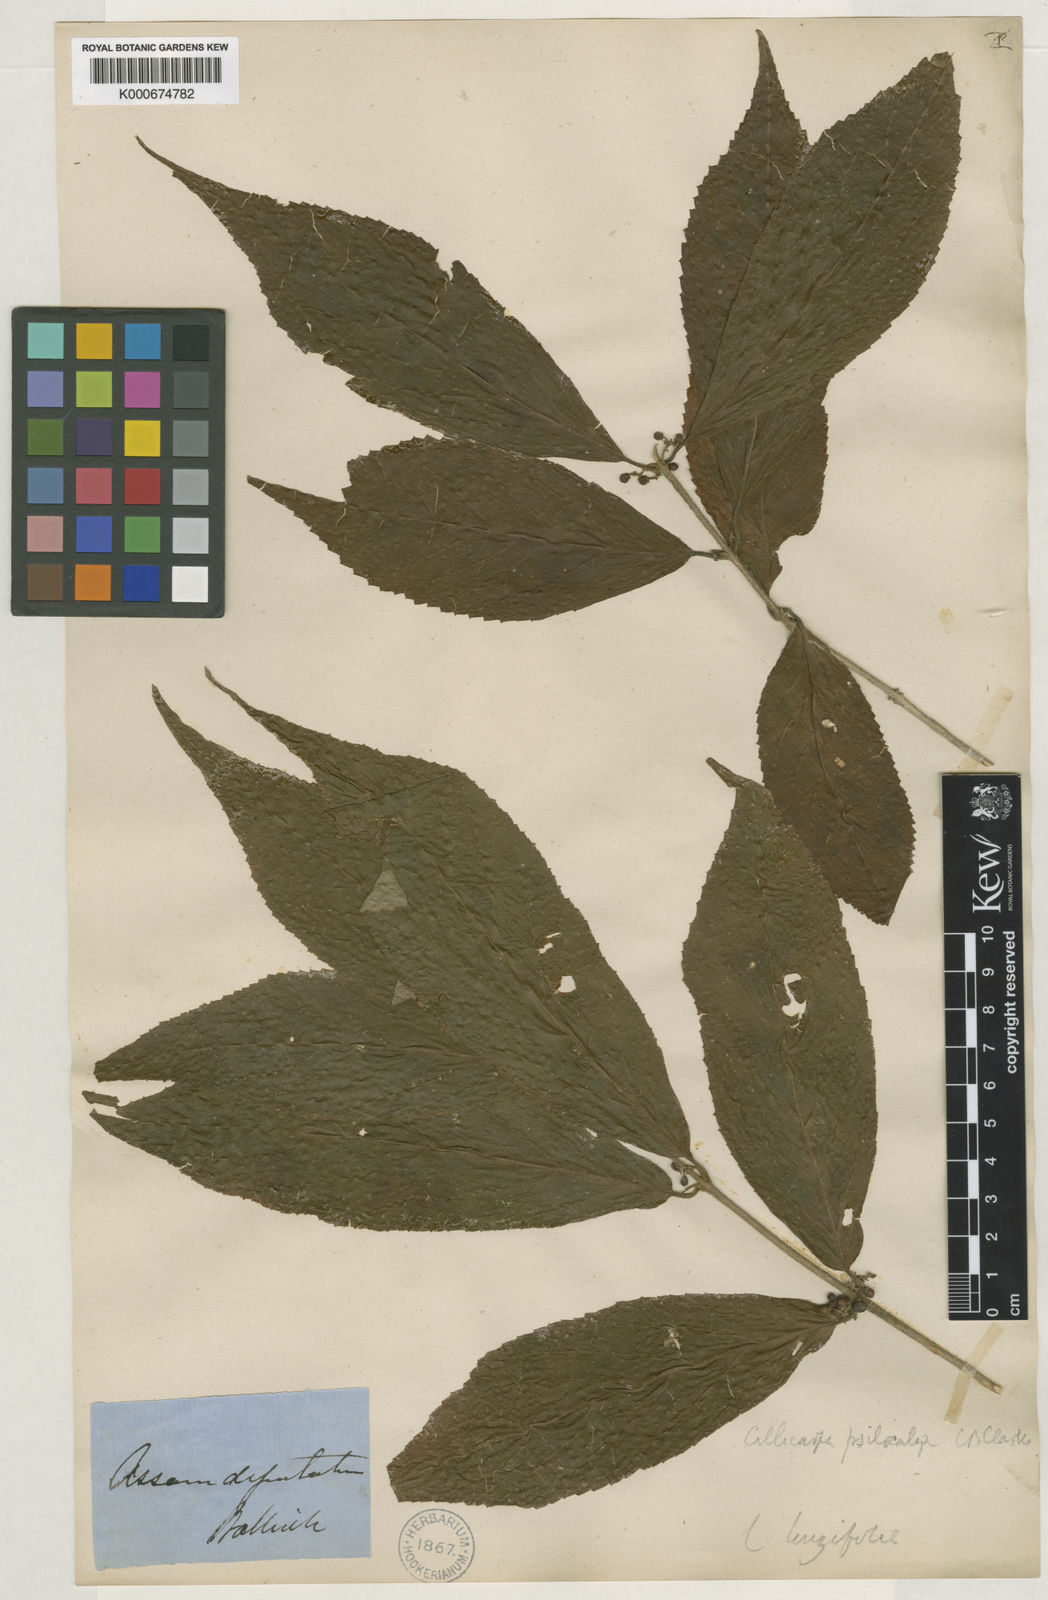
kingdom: Plantae
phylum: Tracheophyta
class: Magnoliopsida
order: Lamiales
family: Lamiaceae
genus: Callicarpa
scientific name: Callicarpa psilocalyx
